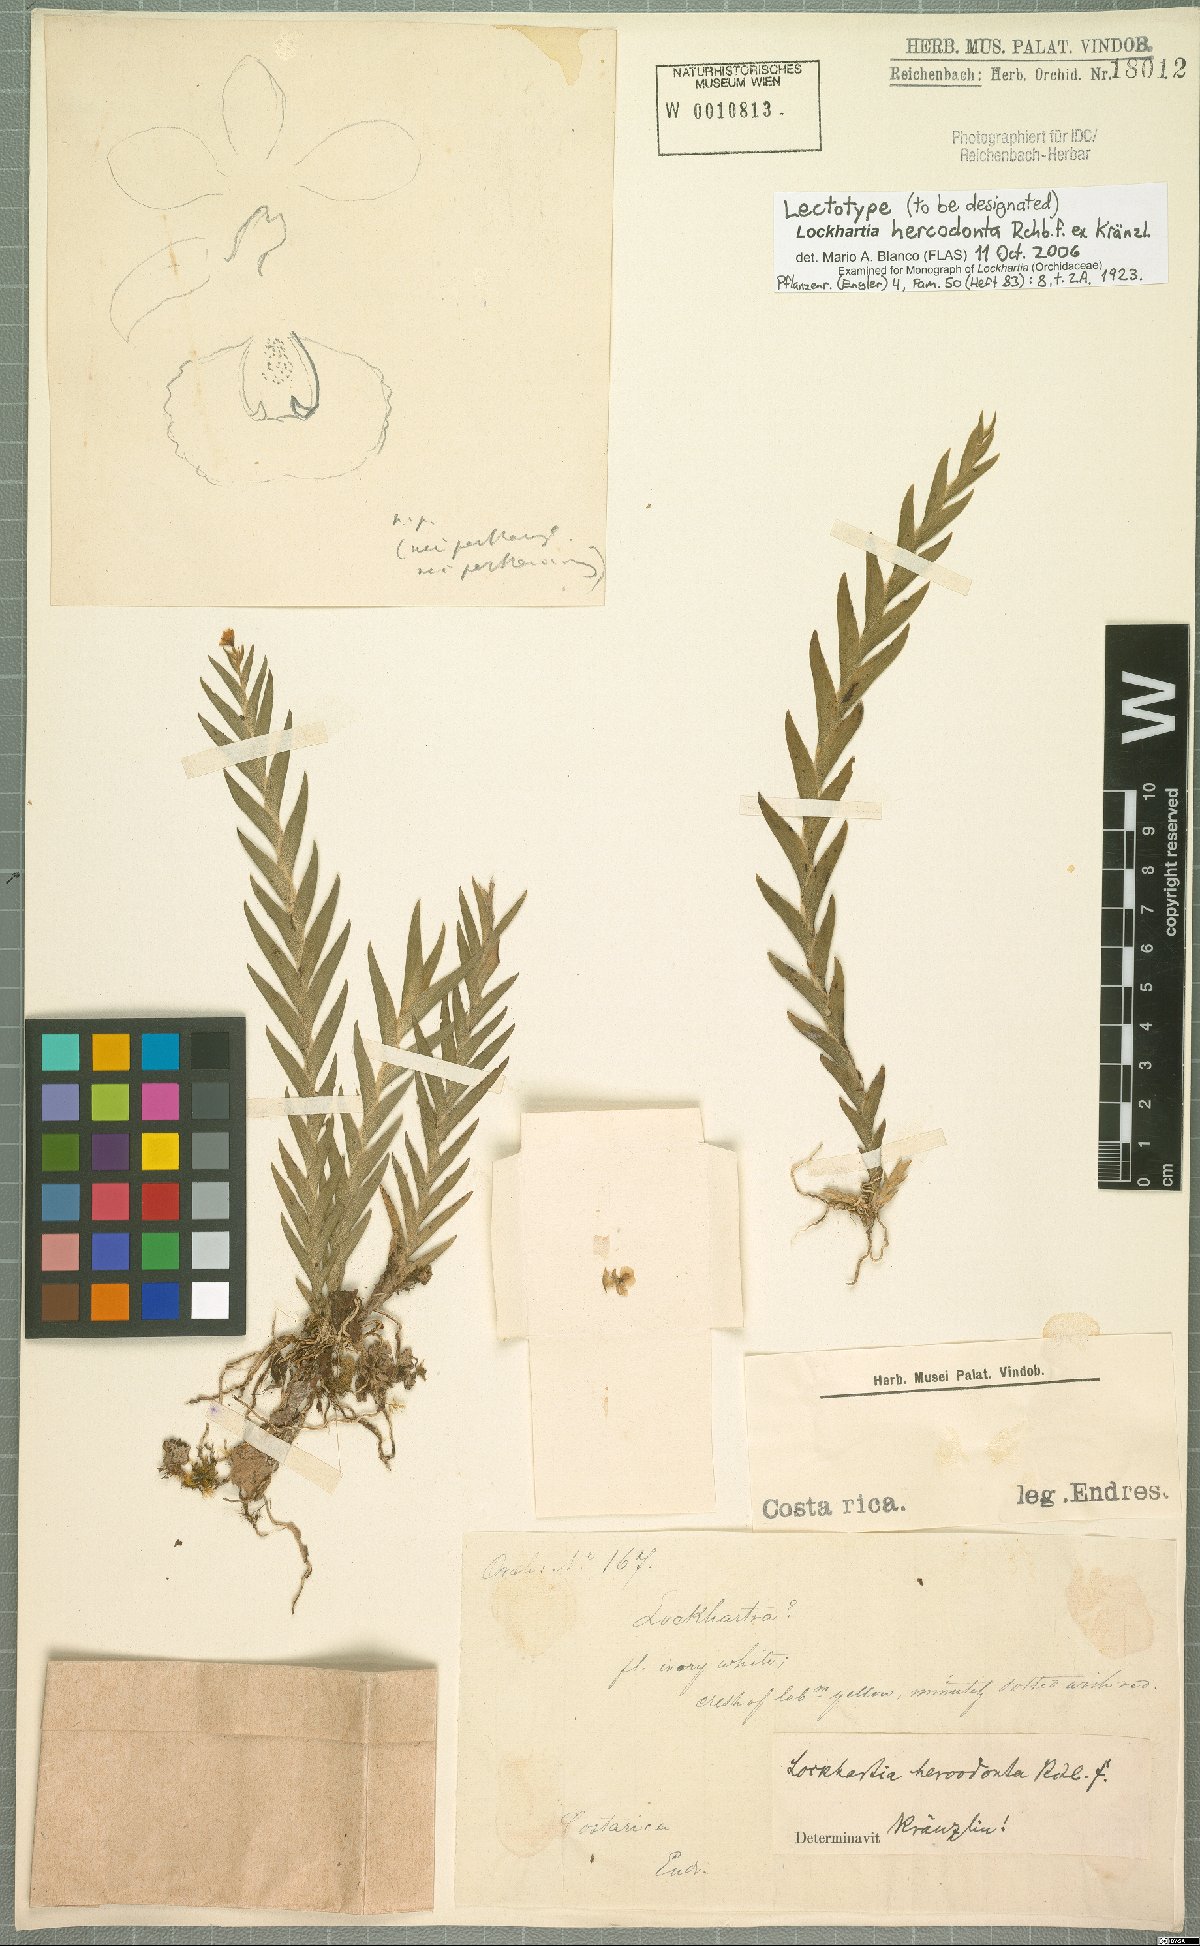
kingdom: Plantae
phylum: Tracheophyta
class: Liliopsida
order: Asparagales
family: Orchidaceae
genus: Lockhartia
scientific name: Lockhartia hercodonta
